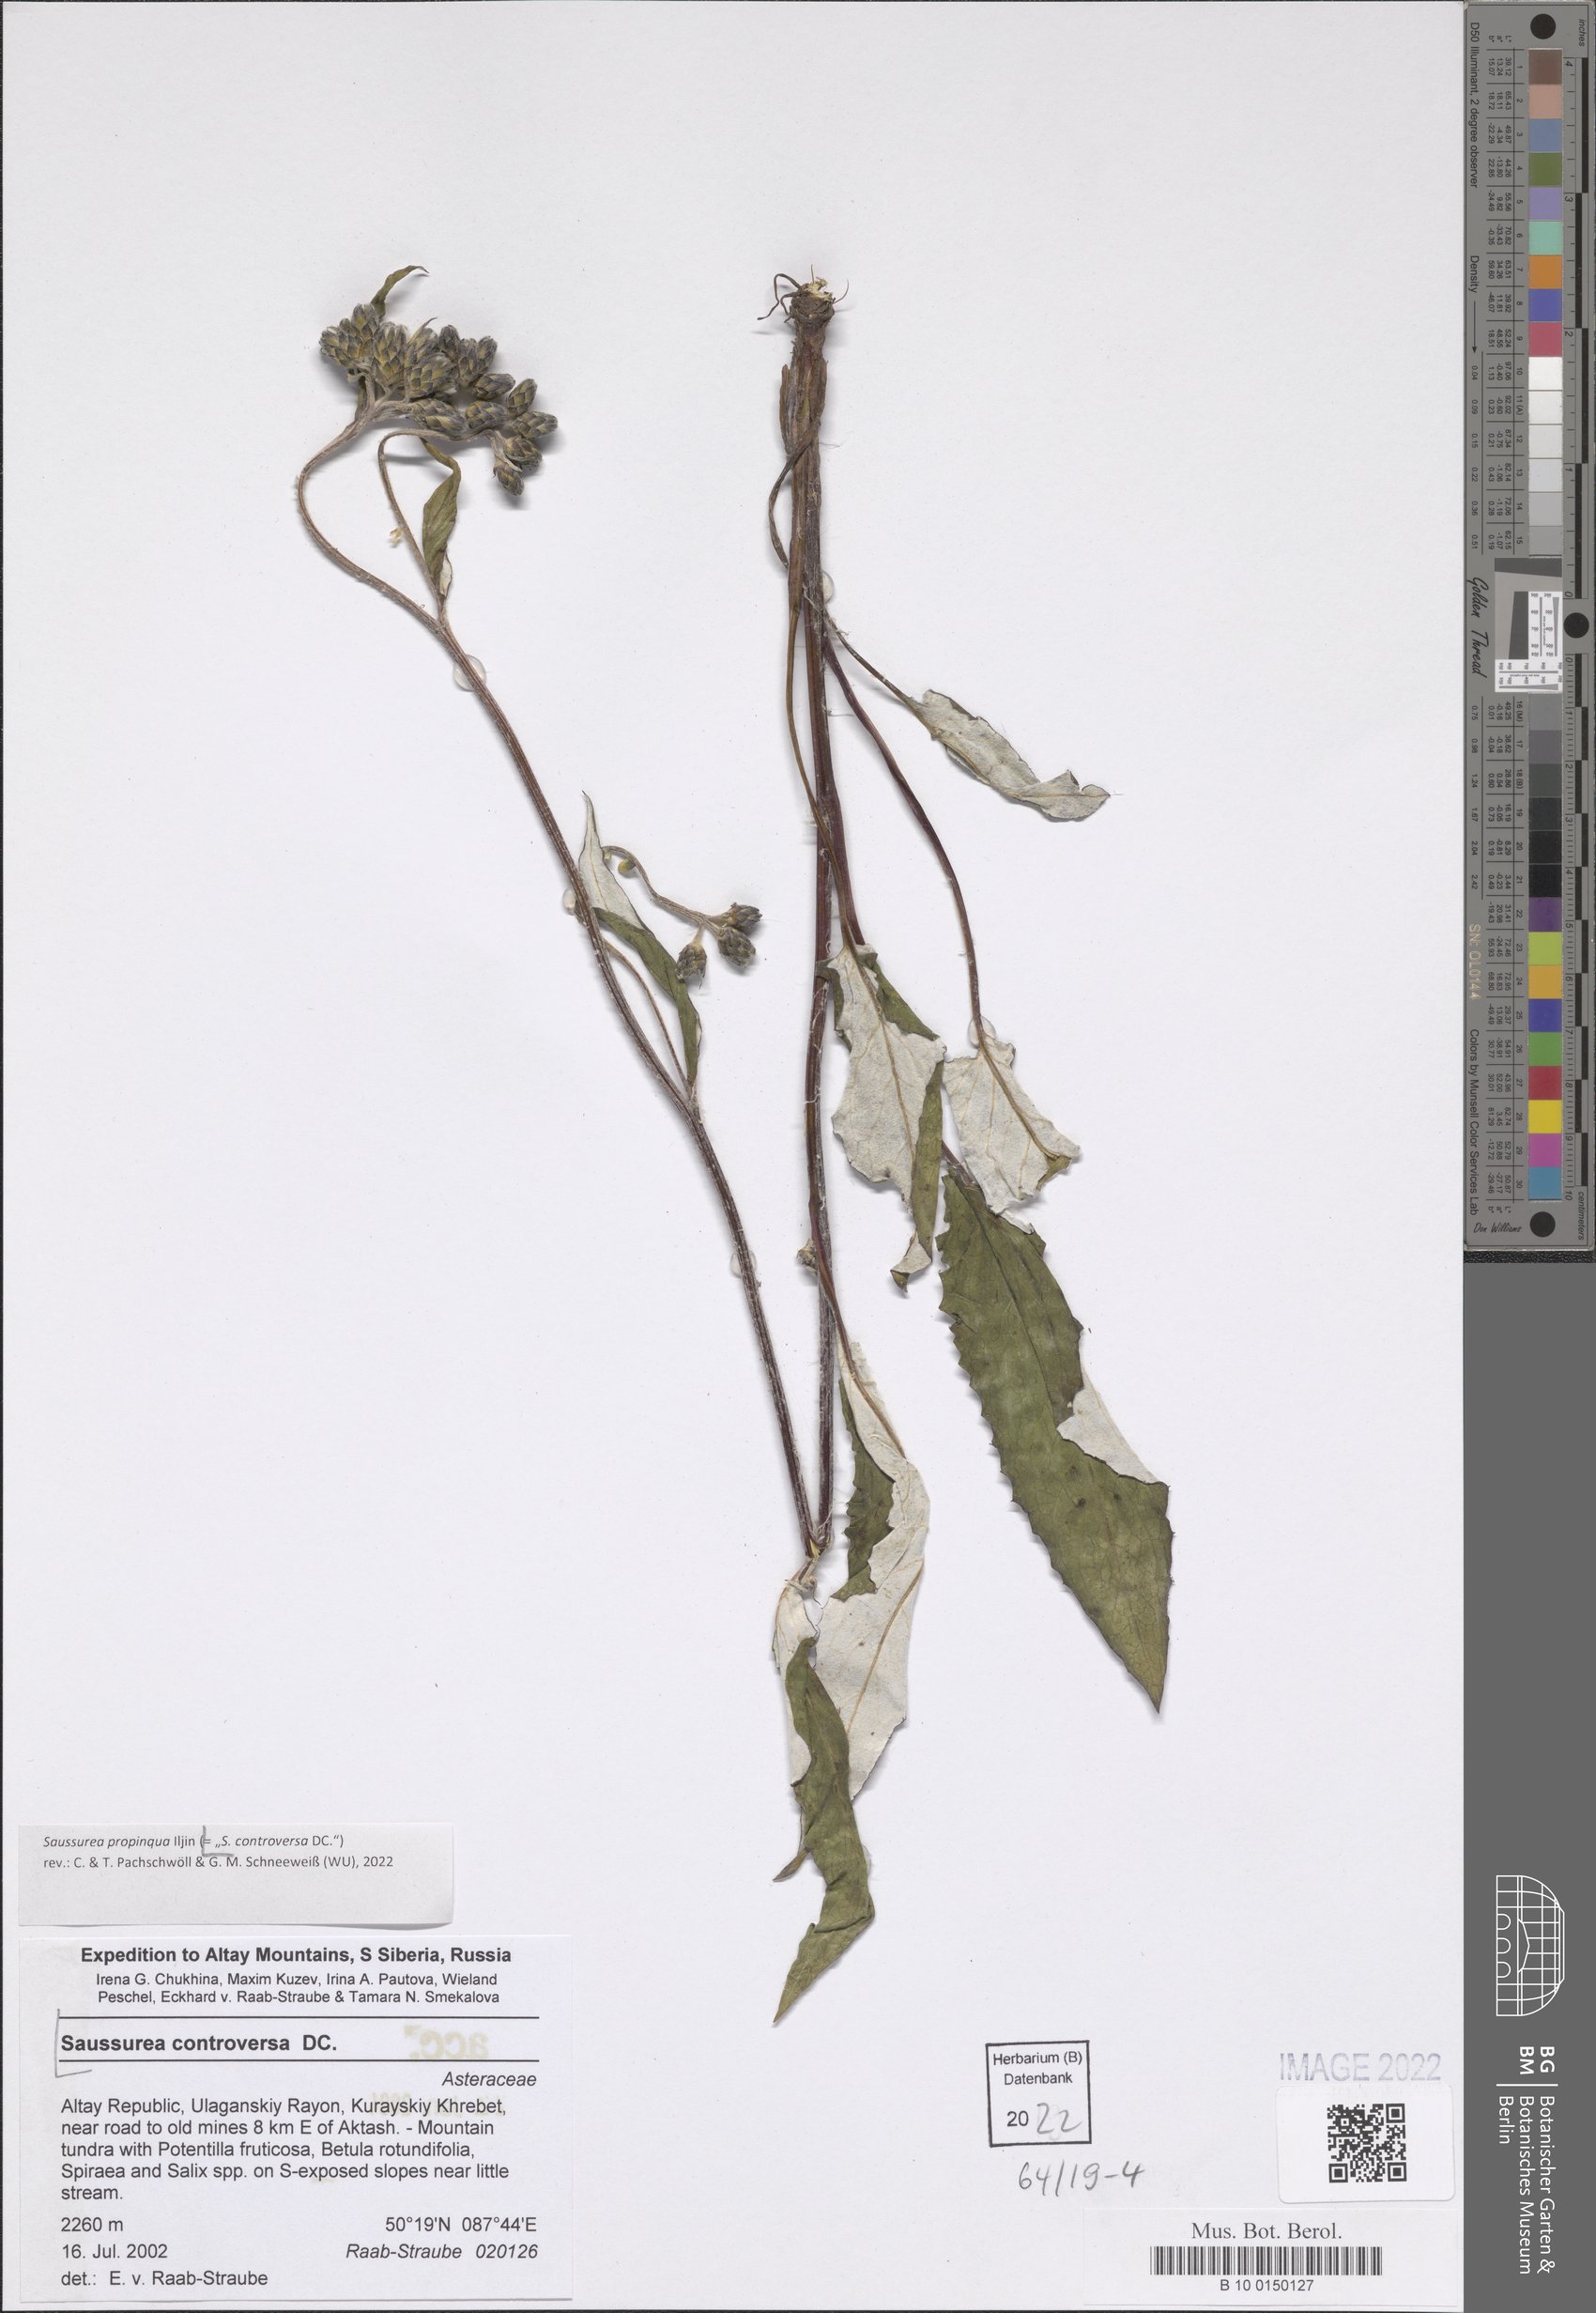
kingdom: Plantae
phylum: Tracheophyta
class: Magnoliopsida
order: Asterales
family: Asteraceae
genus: Saussurea
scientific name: Saussurea controversa
